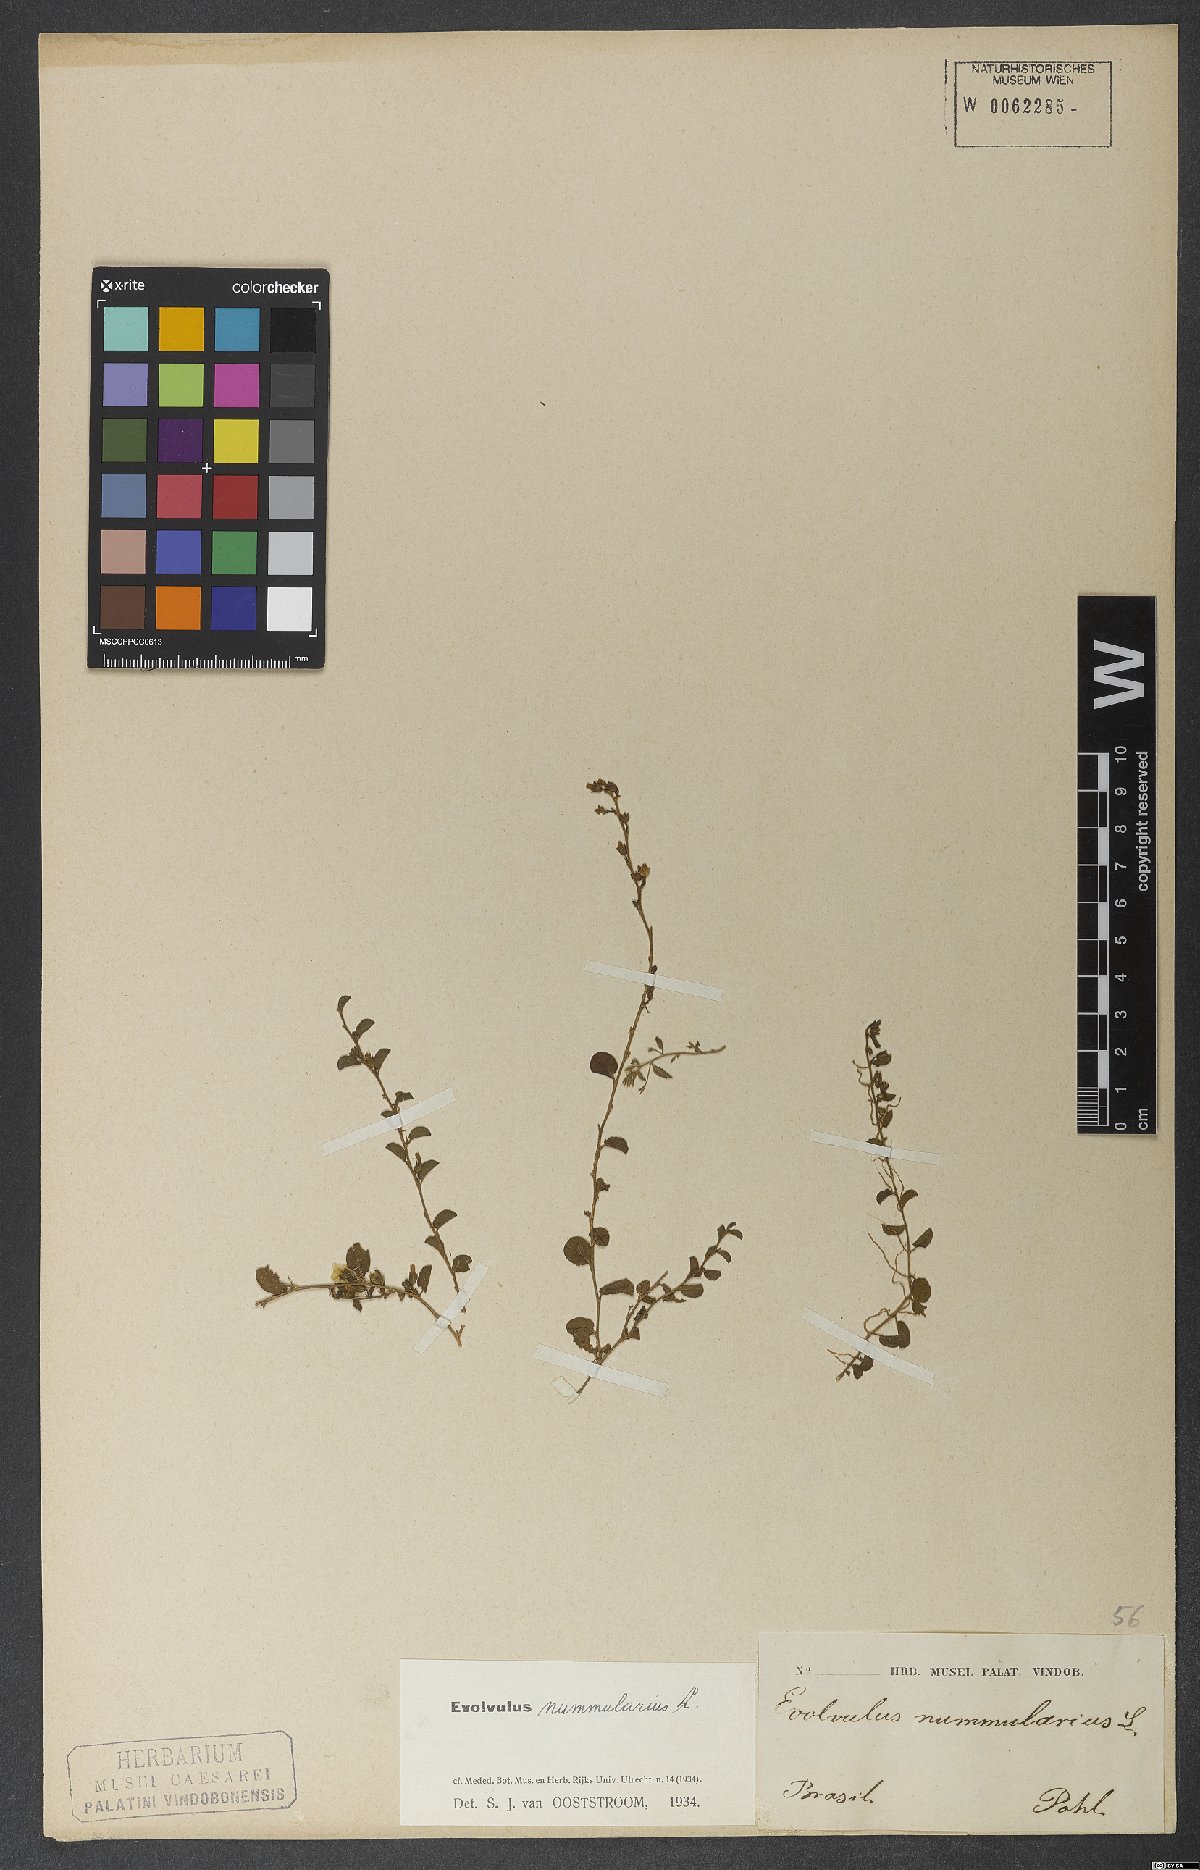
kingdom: Plantae
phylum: Tracheophyta
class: Magnoliopsida
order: Solanales
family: Convolvulaceae
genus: Evolvulus
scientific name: Evolvulus nummularius
